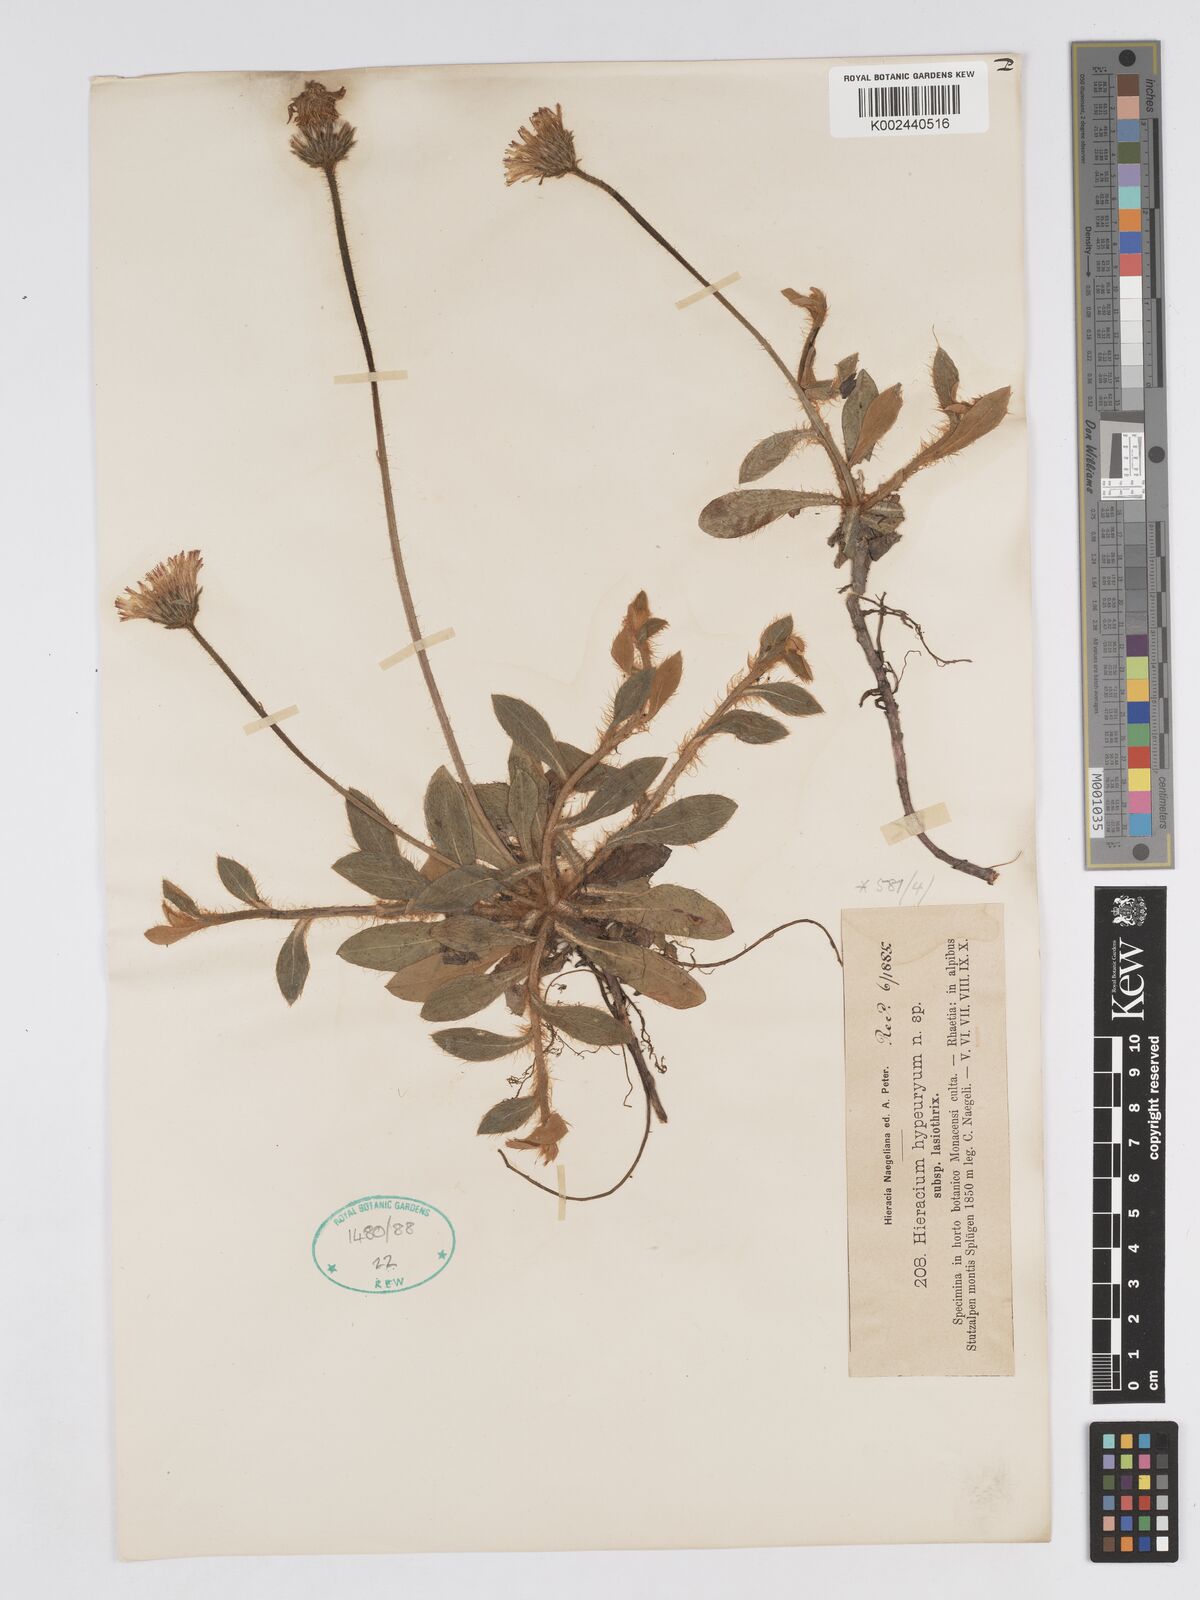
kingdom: Plantae
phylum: Tracheophyta
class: Magnoliopsida
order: Asterales
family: Asteraceae
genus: Pilosella
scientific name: Pilosella hypeurya
